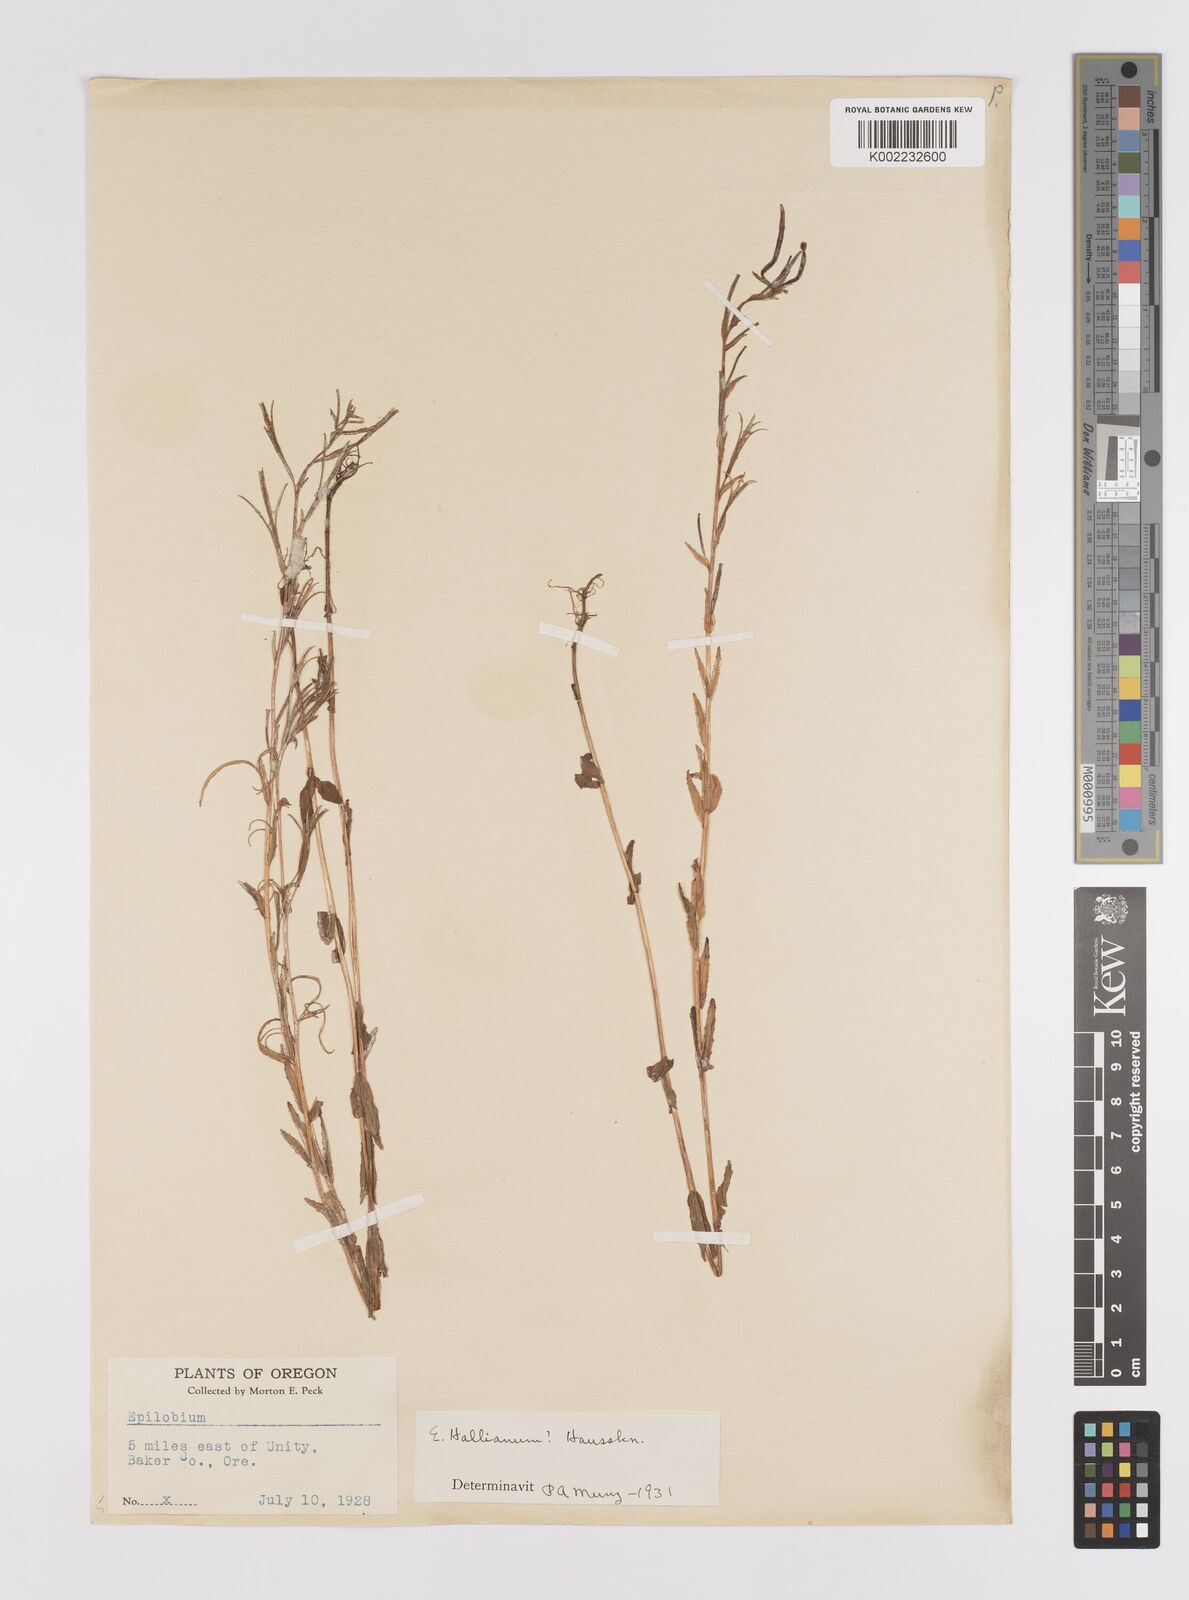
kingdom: Plantae
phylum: Tracheophyta
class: Magnoliopsida
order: Myrtales
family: Onagraceae
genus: Epilobium
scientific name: Epilobium hallianum
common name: Hall's willowherb
